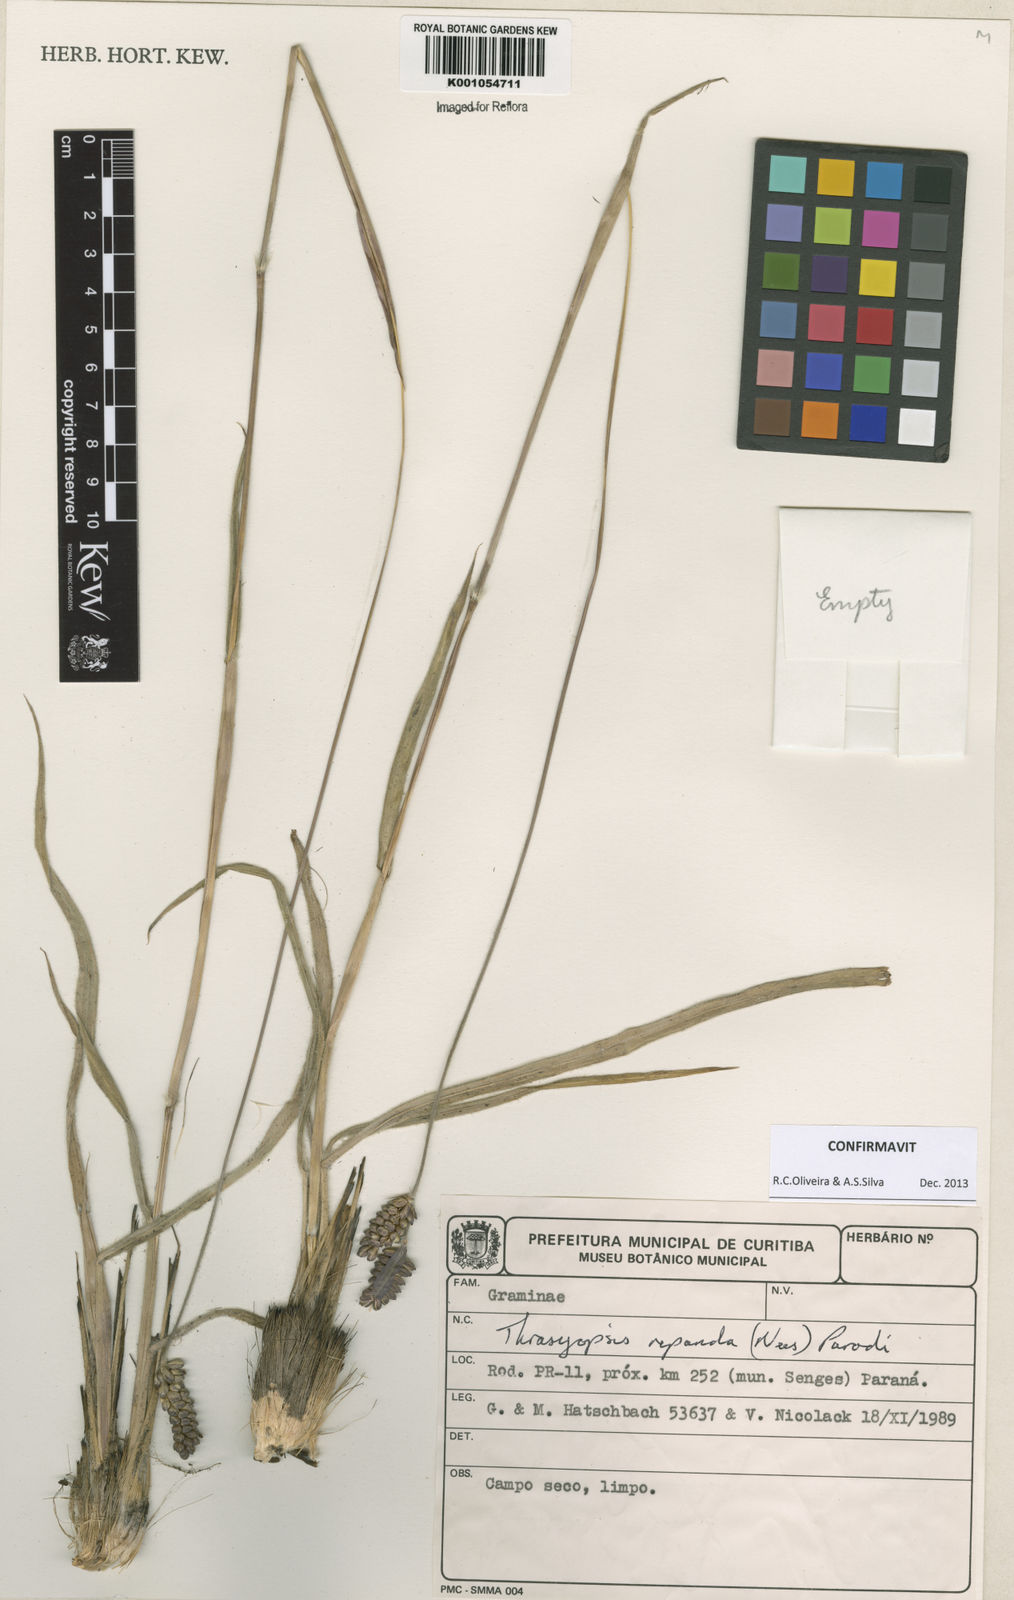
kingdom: Plantae
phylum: Tracheophyta
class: Liliopsida
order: Poales
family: Poaceae
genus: Paspalum
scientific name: Paspalum repandum
